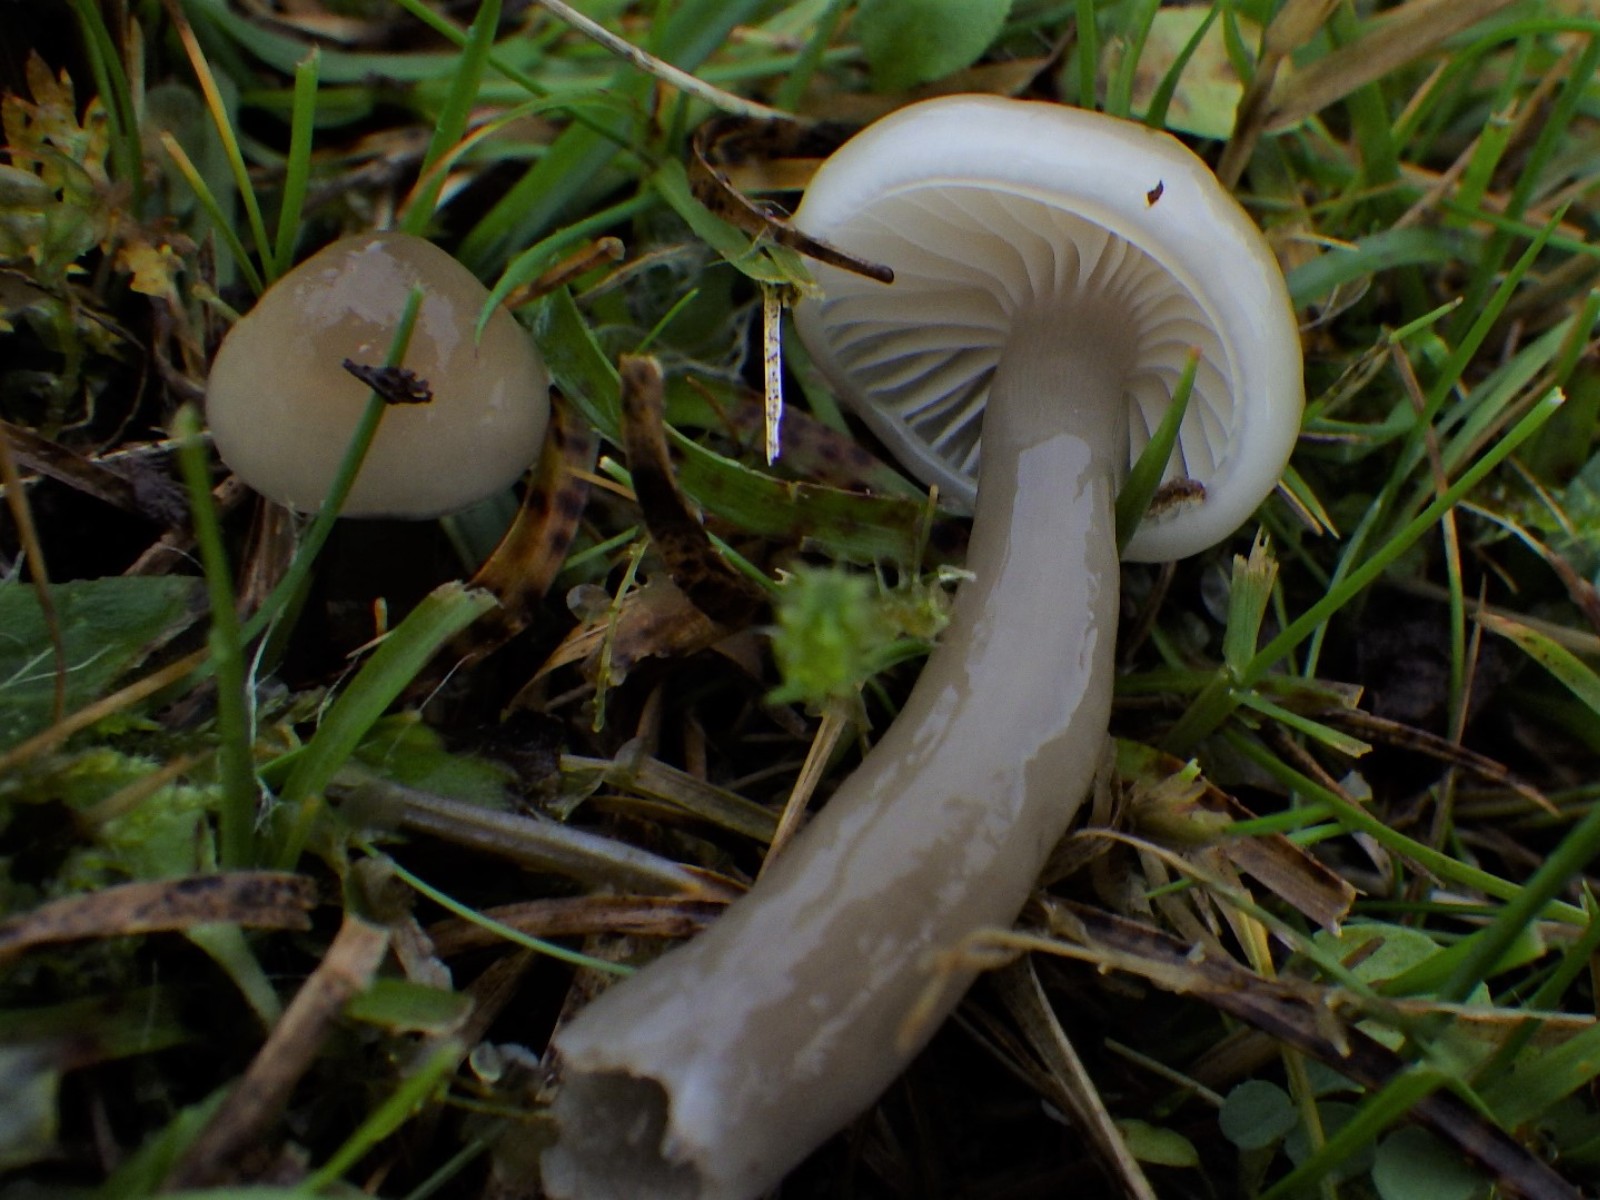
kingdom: Fungi
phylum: Basidiomycota
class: Agaricomycetes
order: Agaricales
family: Hygrophoraceae
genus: Gliophorus
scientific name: Gliophorus irrigatus
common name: slimet vokshat
